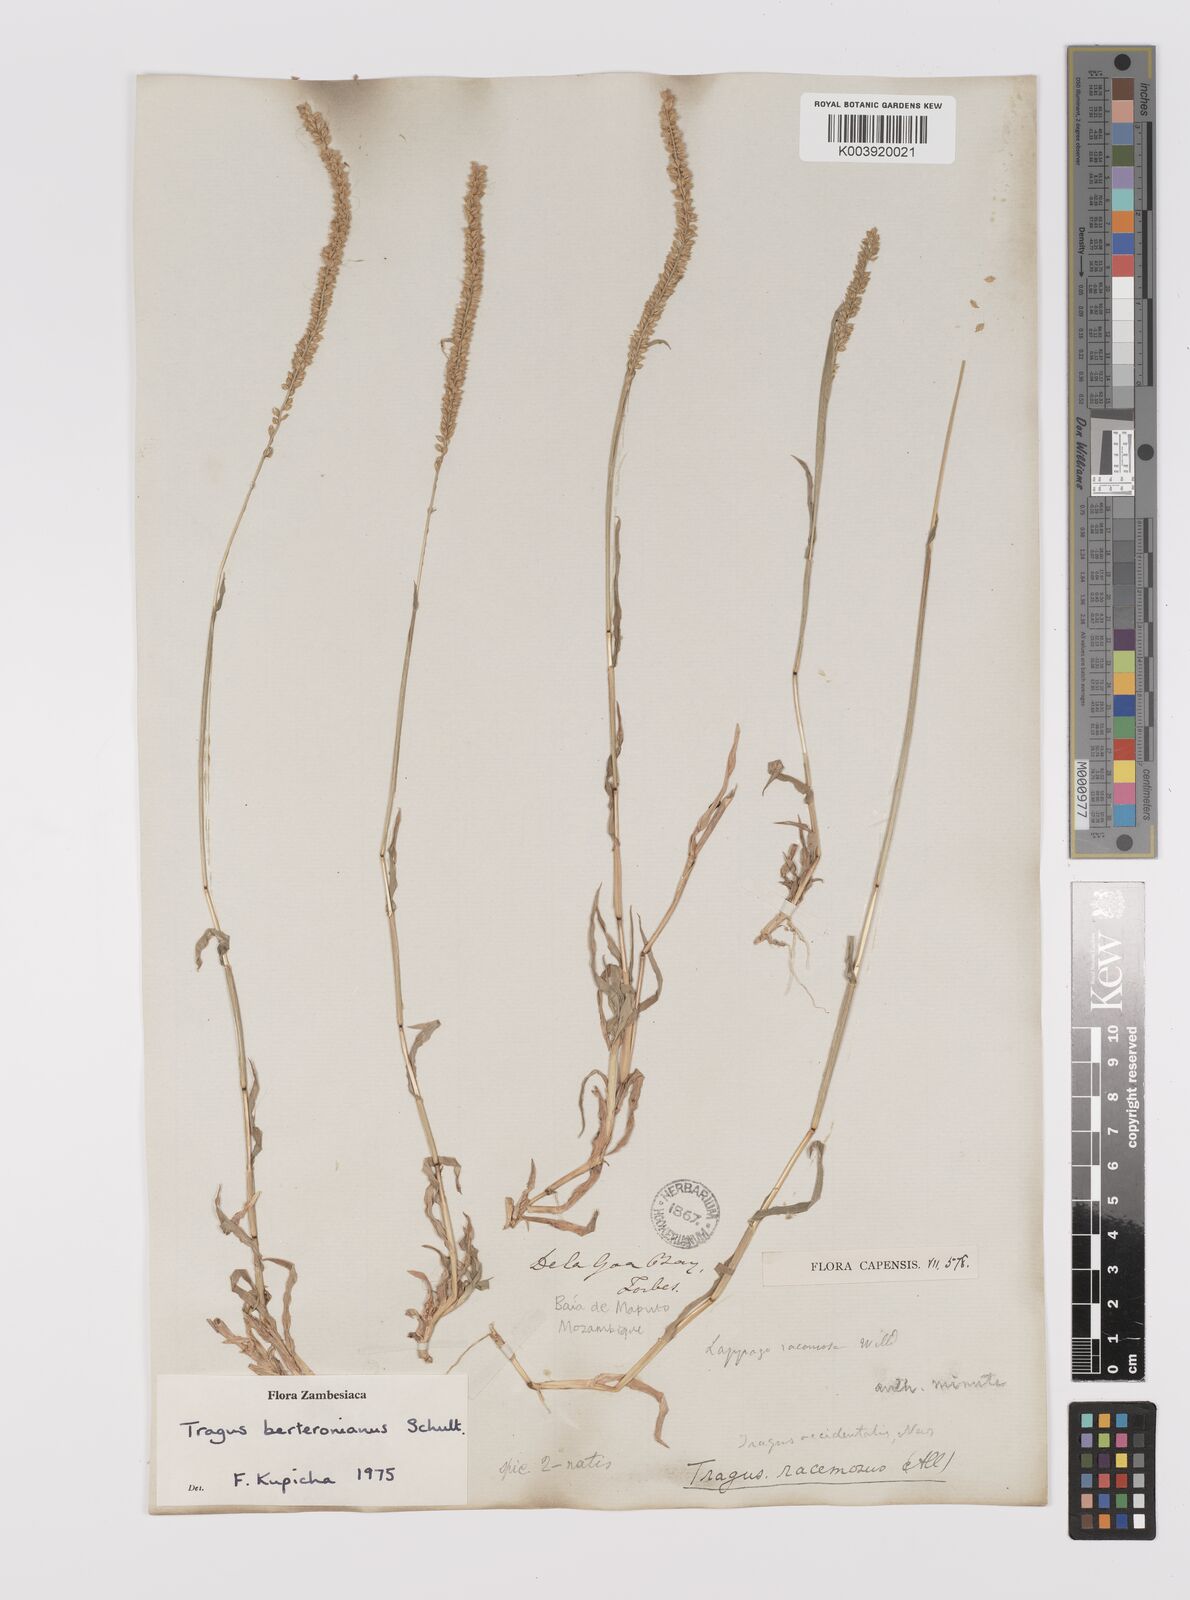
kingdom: Plantae
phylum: Tracheophyta
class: Liliopsida
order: Poales
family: Poaceae
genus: Tragus
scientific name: Tragus berteronianus
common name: African bur-grass
